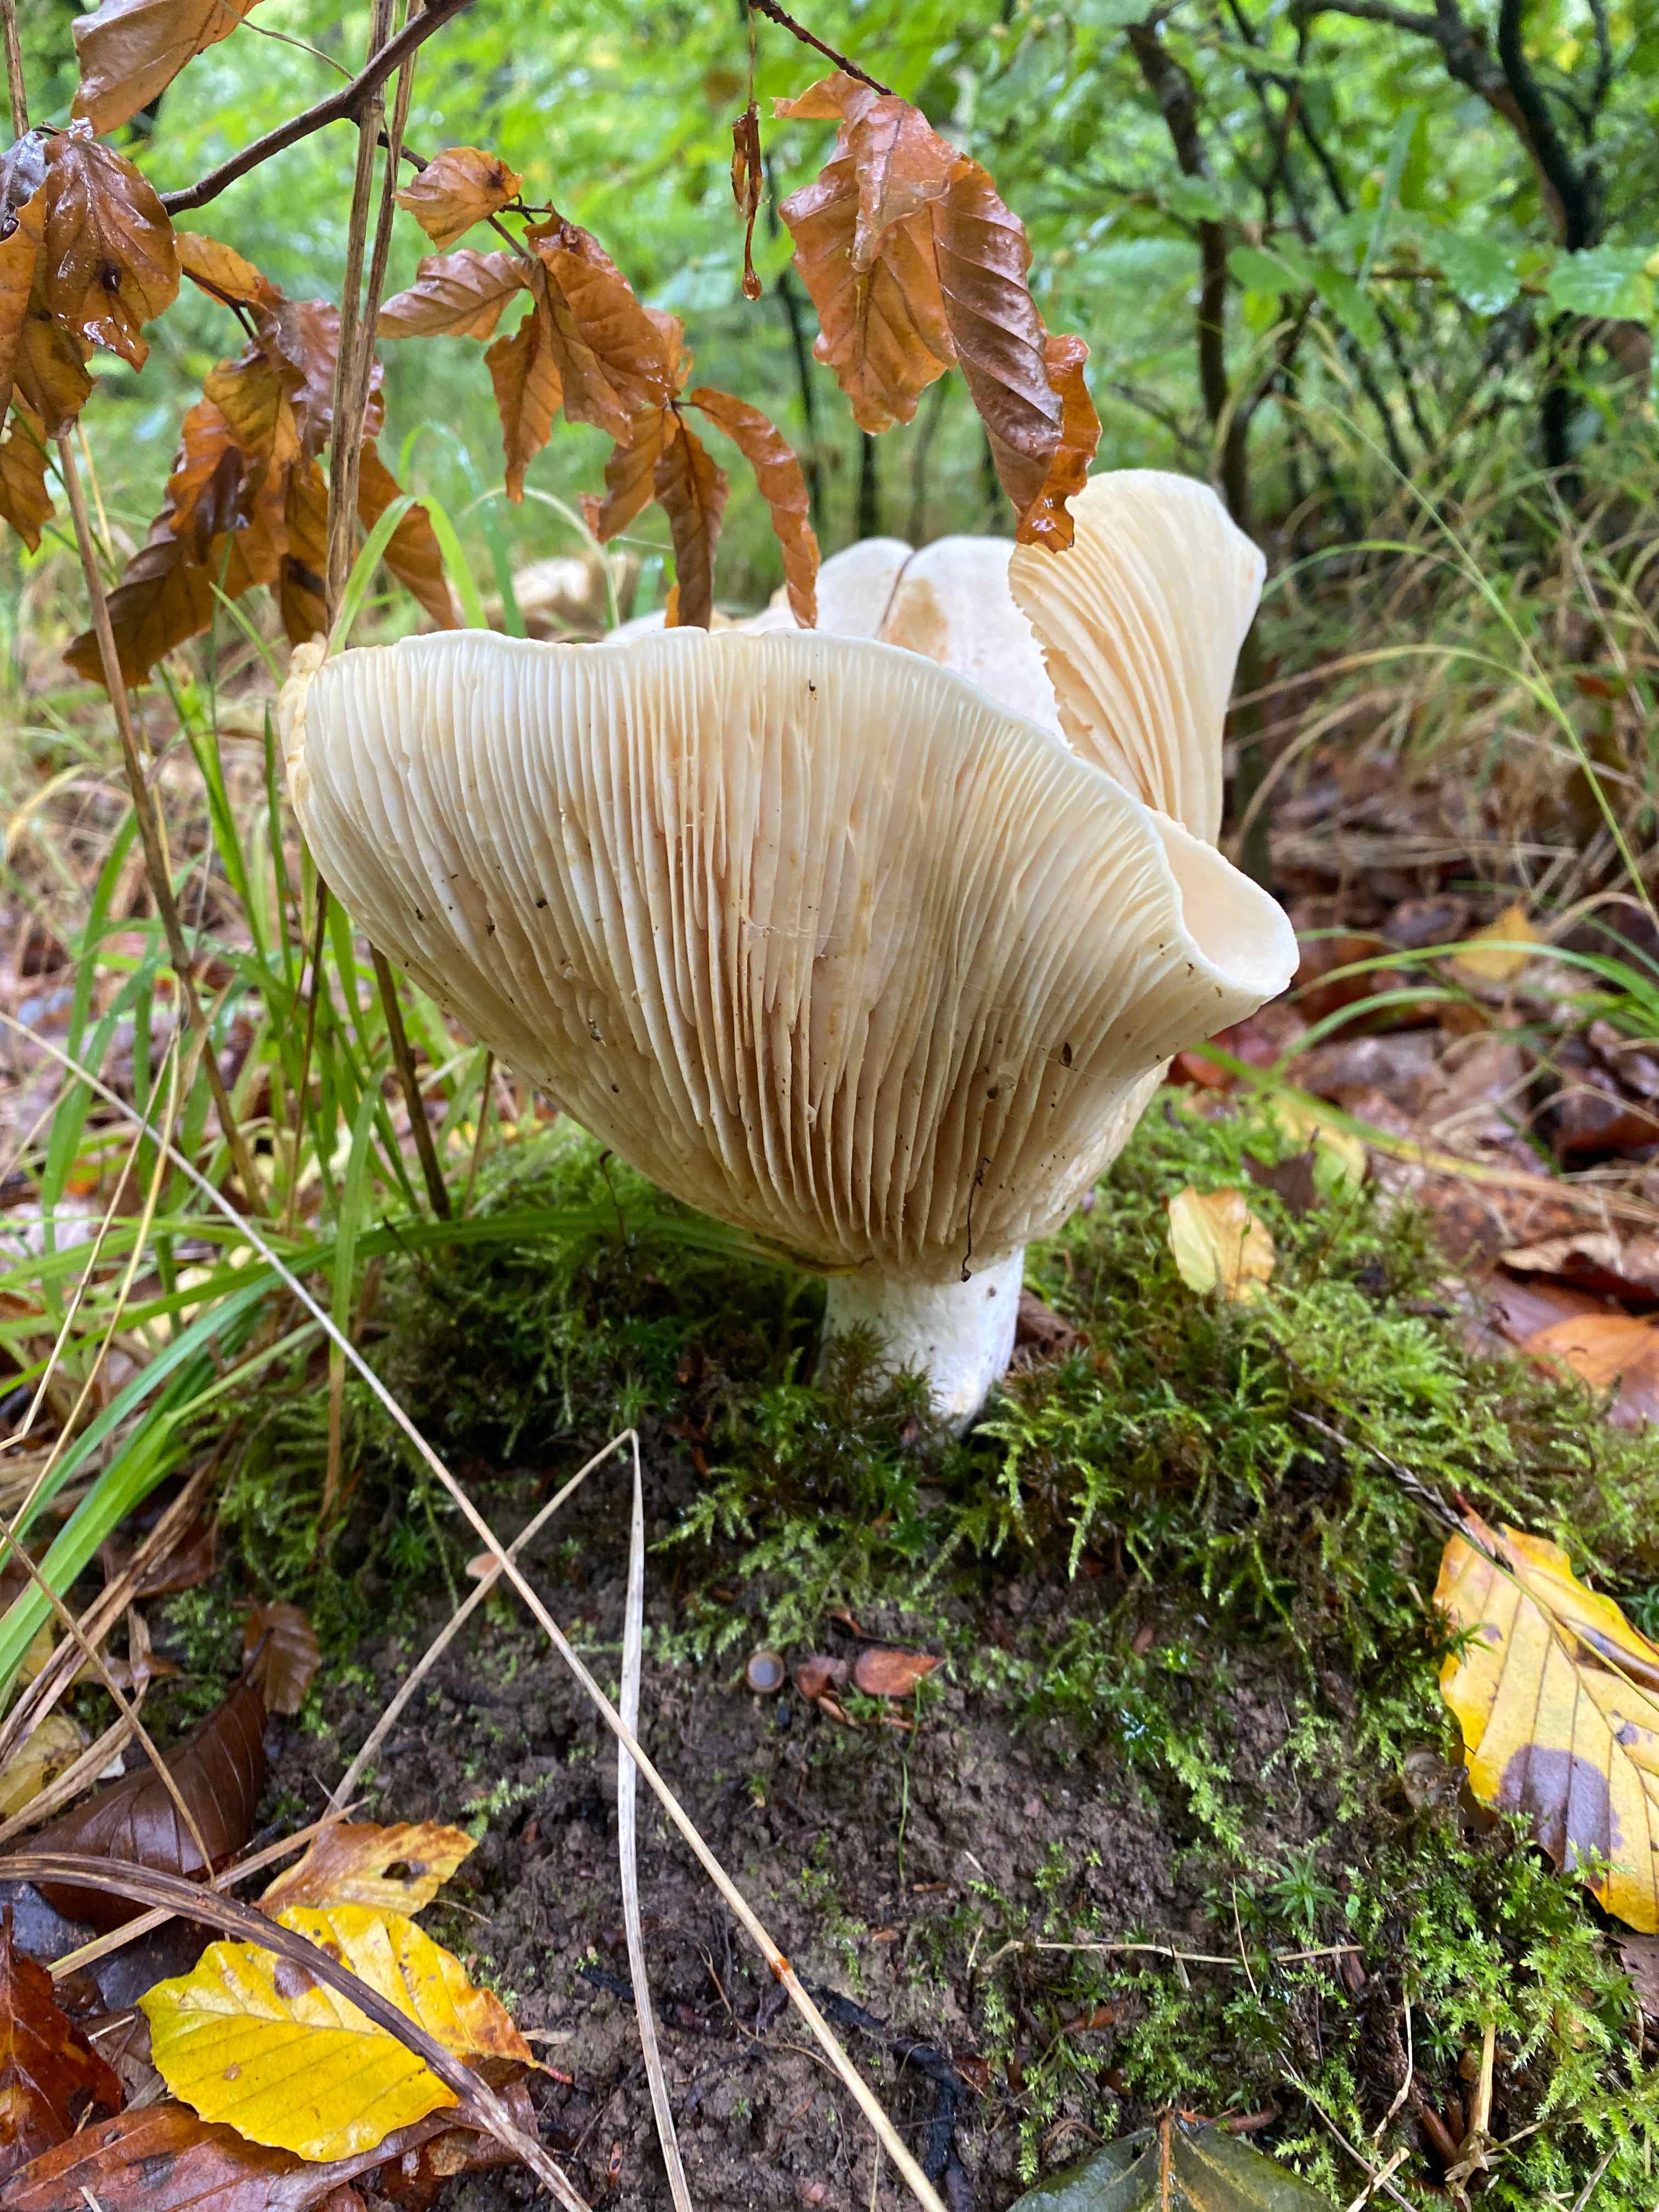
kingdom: Fungi
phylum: Basidiomycota
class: Agaricomycetes
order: Russulales
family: Russulaceae
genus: Lactifluus
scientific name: Lactifluus
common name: mælkehat
